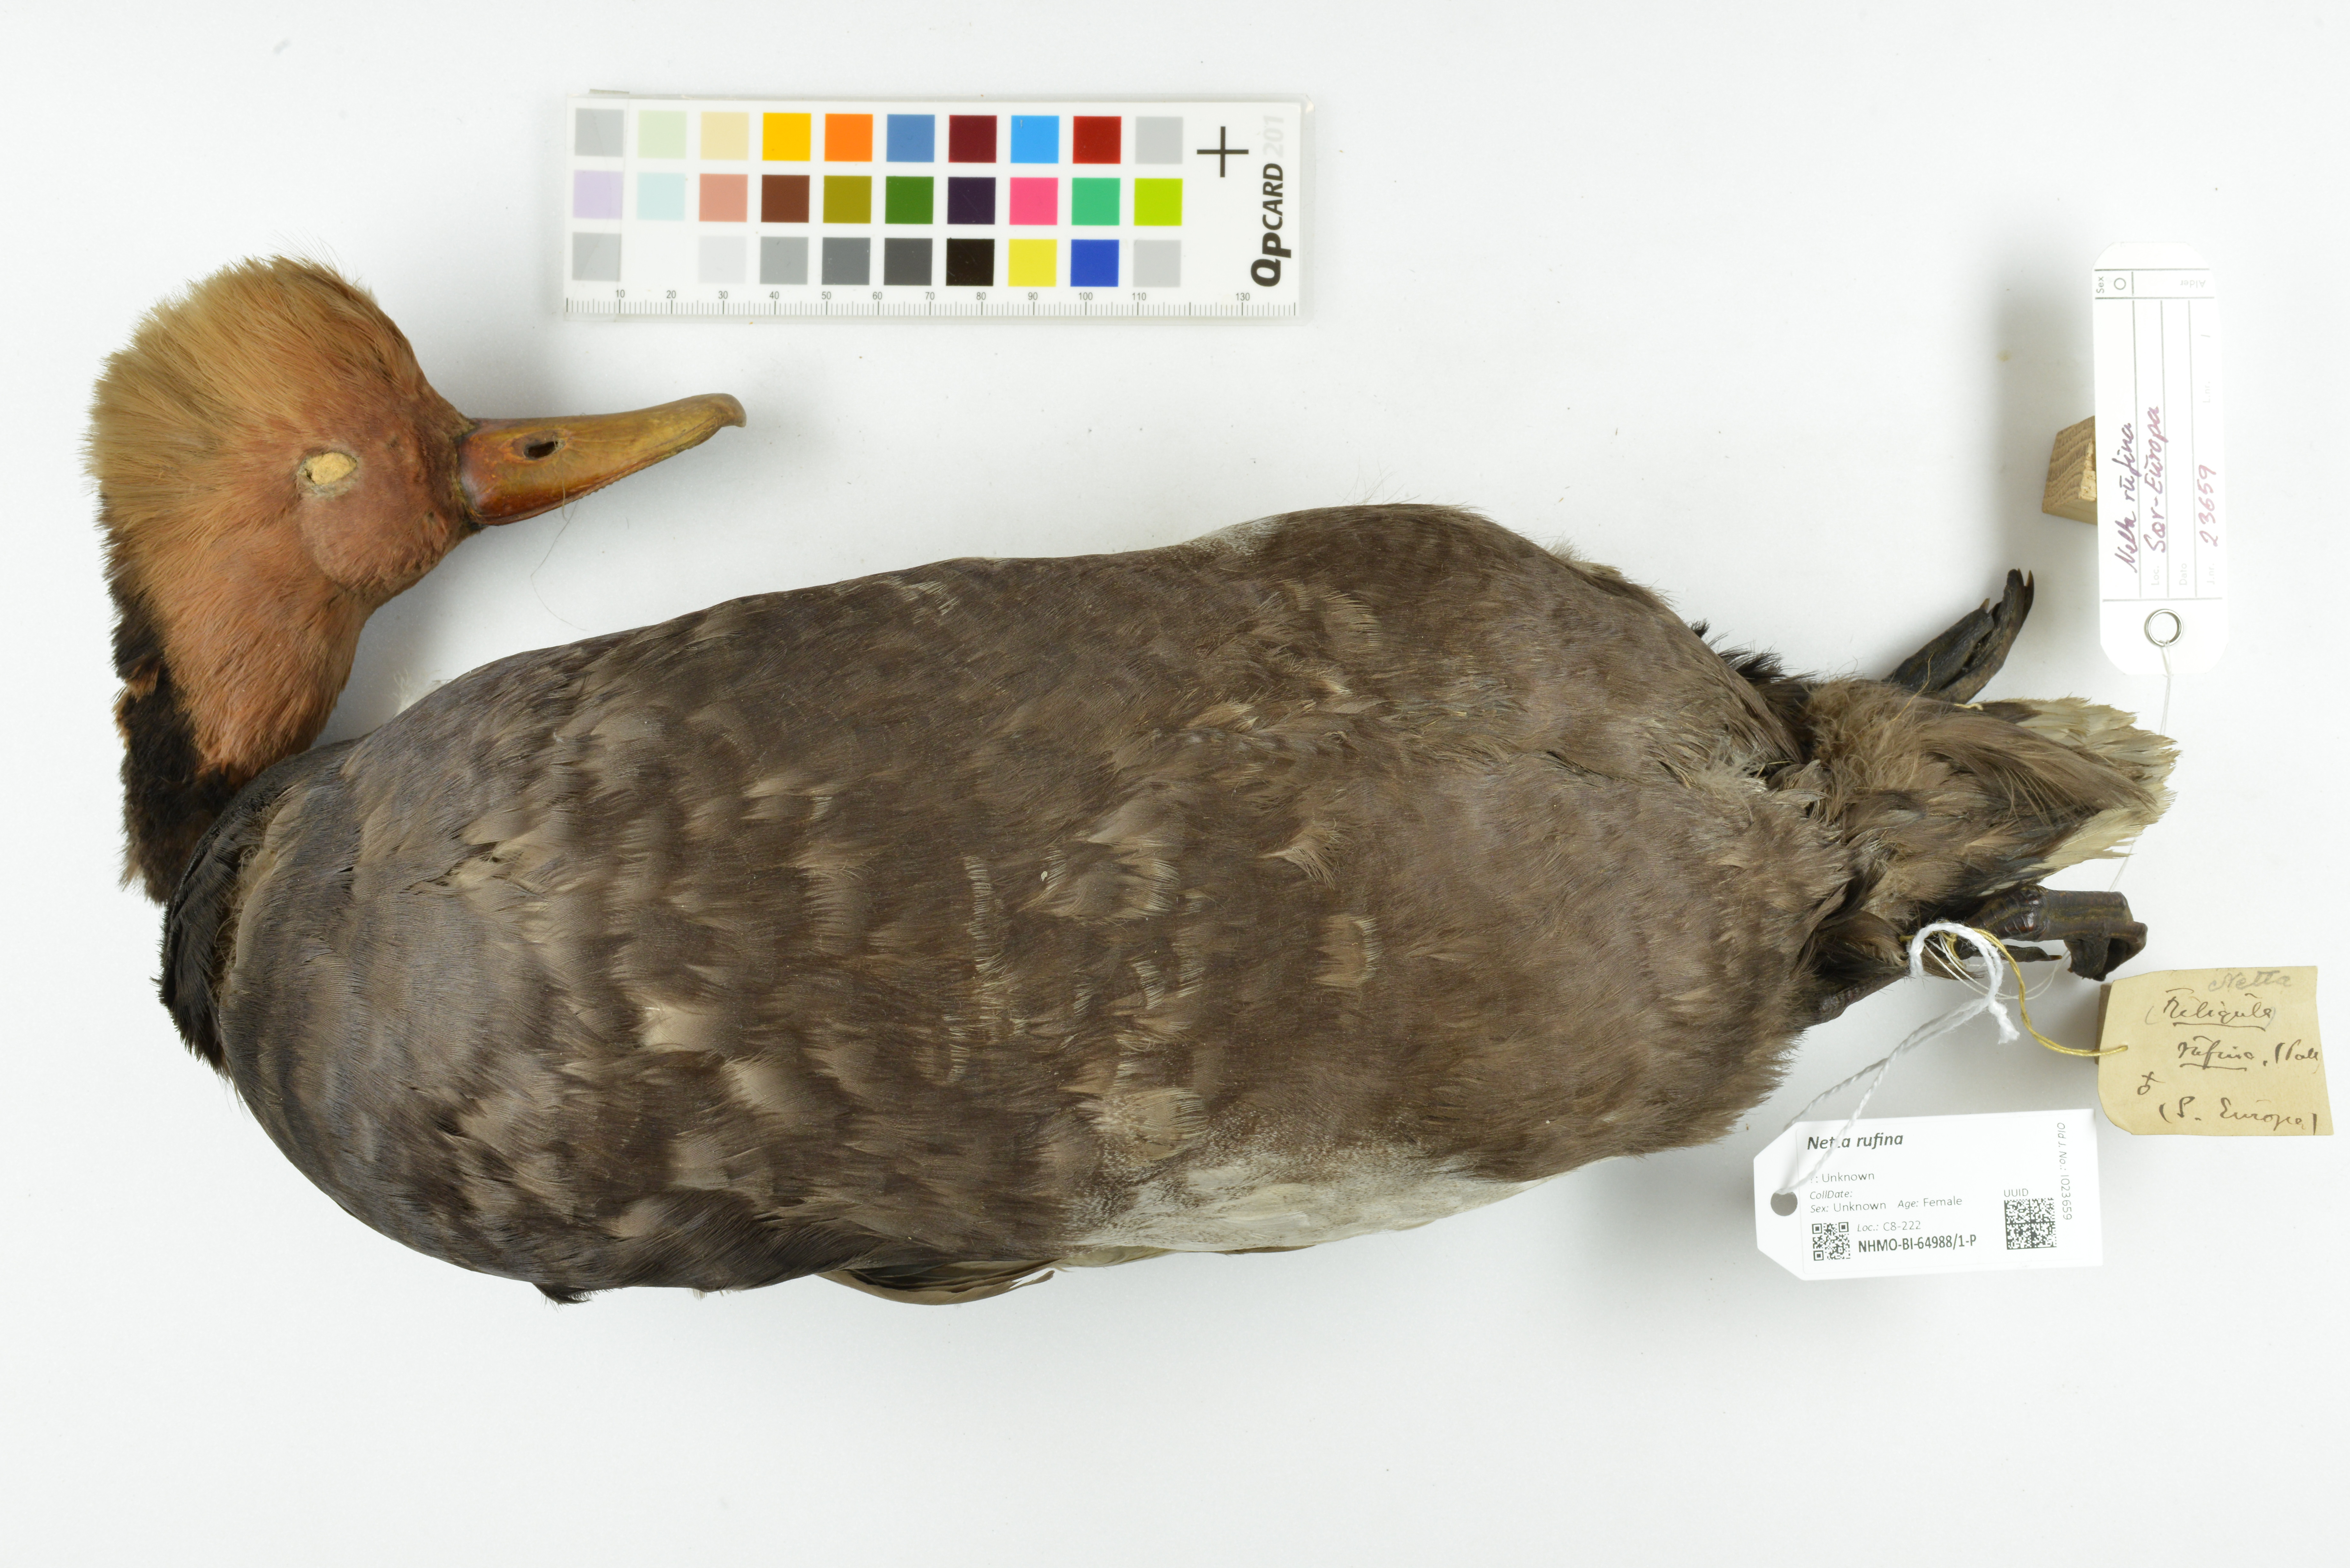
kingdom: Animalia
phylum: Chordata
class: Aves
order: Anseriformes
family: Anatidae
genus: Netta
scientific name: Netta rufina
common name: Red-crested pochard
